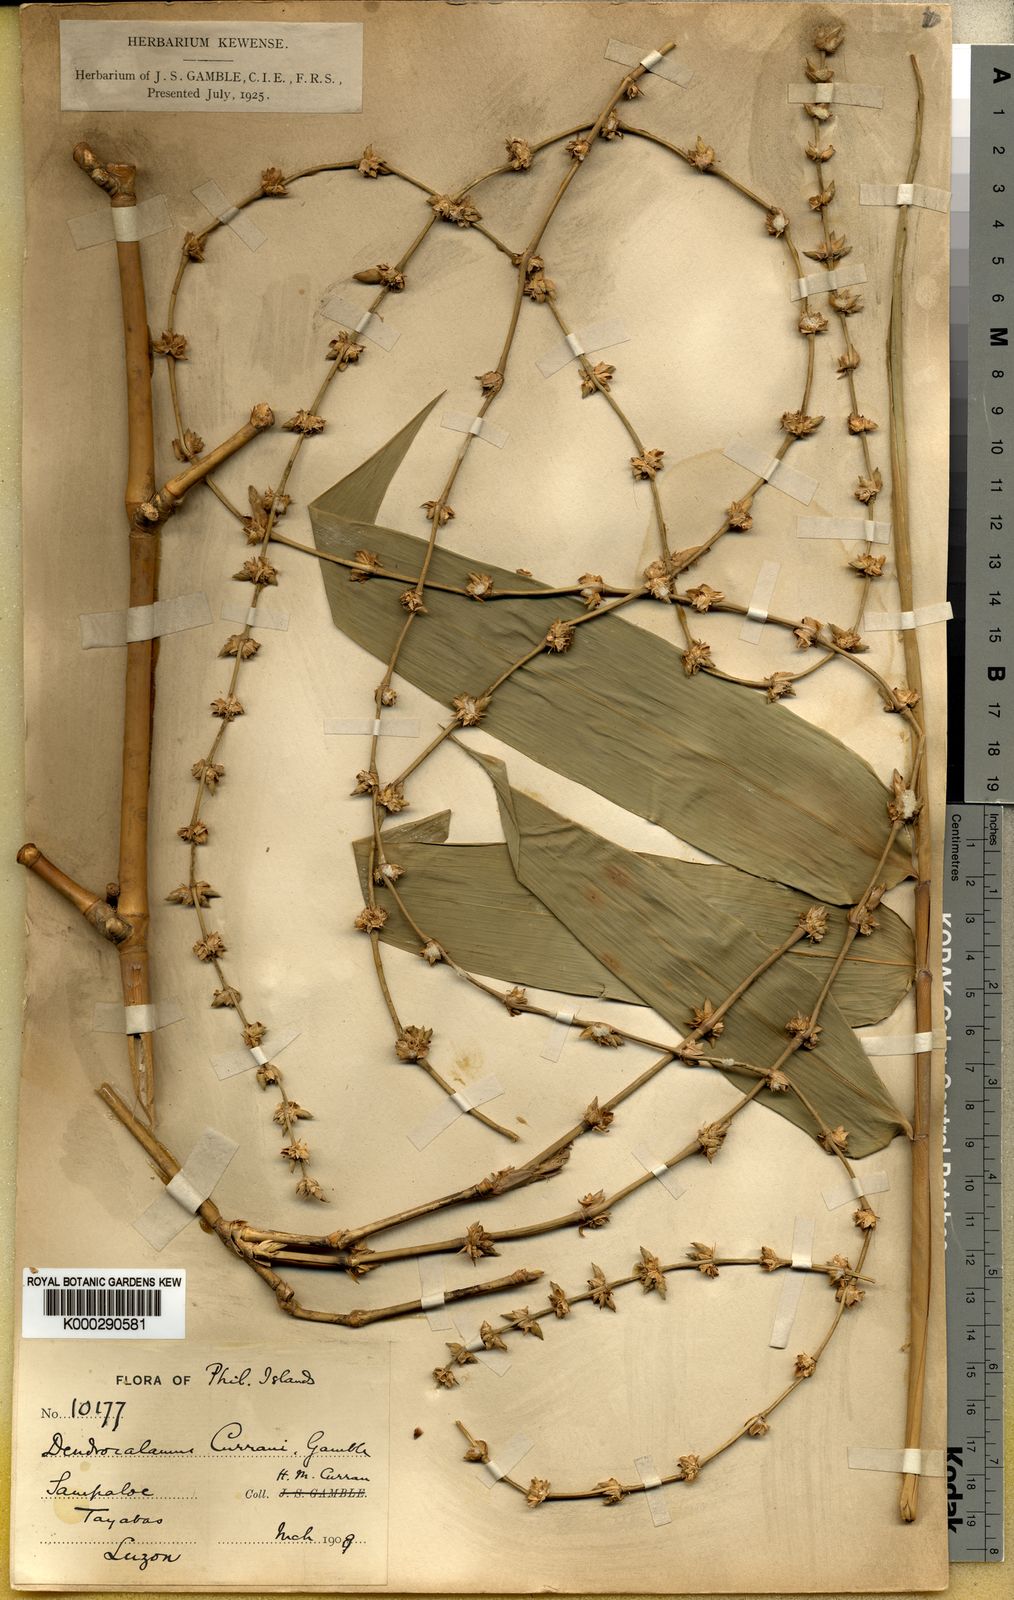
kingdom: Plantae
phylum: Tracheophyta
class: Liliopsida
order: Poales
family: Poaceae
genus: Gigantochloa
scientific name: Gigantochloa levis
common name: Smooth-shoot gigantochloa
